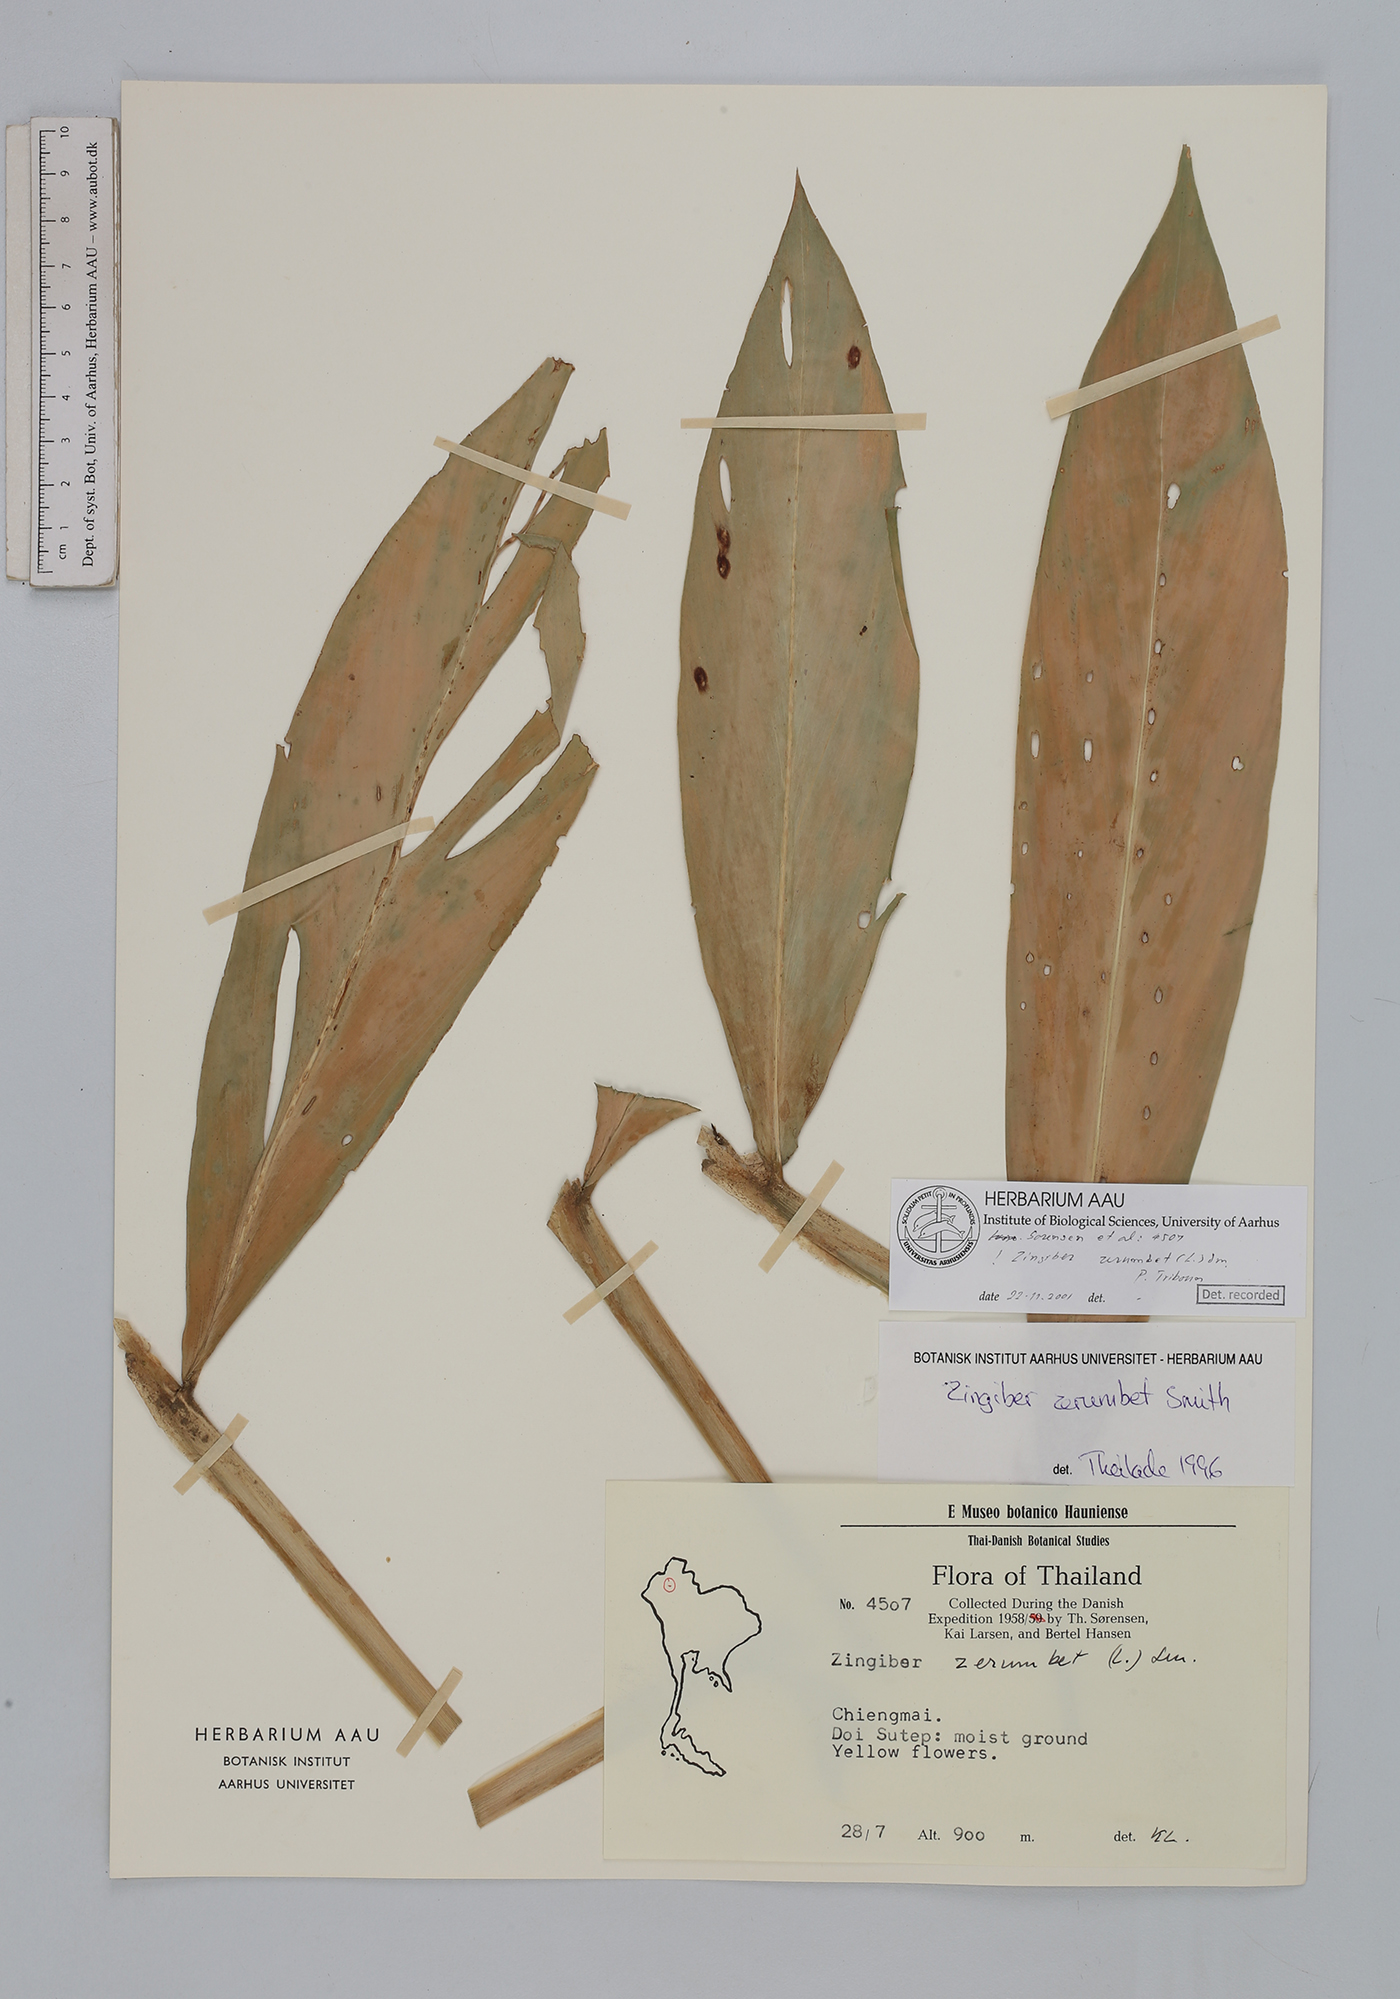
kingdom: Plantae
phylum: Tracheophyta
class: Liliopsida
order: Zingiberales
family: Zingiberaceae
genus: Zingiber
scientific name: Zingiber zerumbet
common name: Bitter ginger
